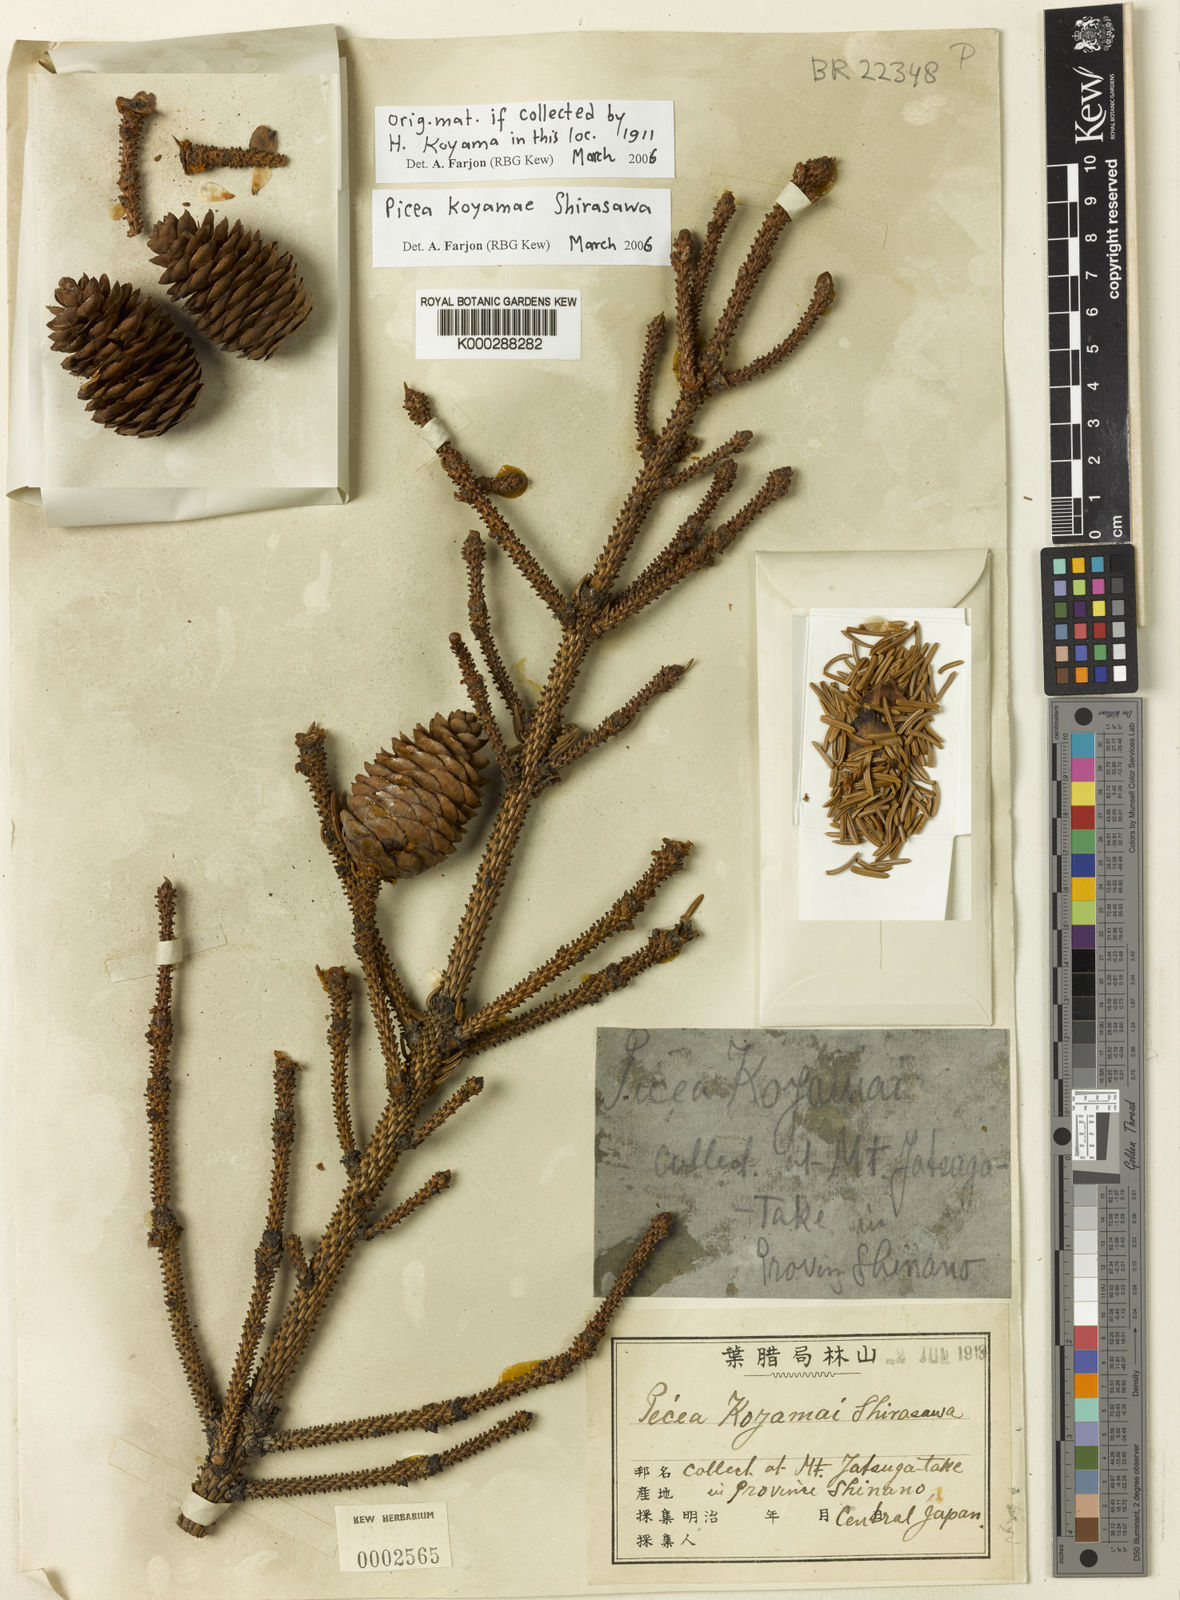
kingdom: Plantae
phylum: Tracheophyta
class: Pinopsida
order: Pinales
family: Pinaceae
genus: Picea
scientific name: Picea koyamae
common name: Koyama's spruce
